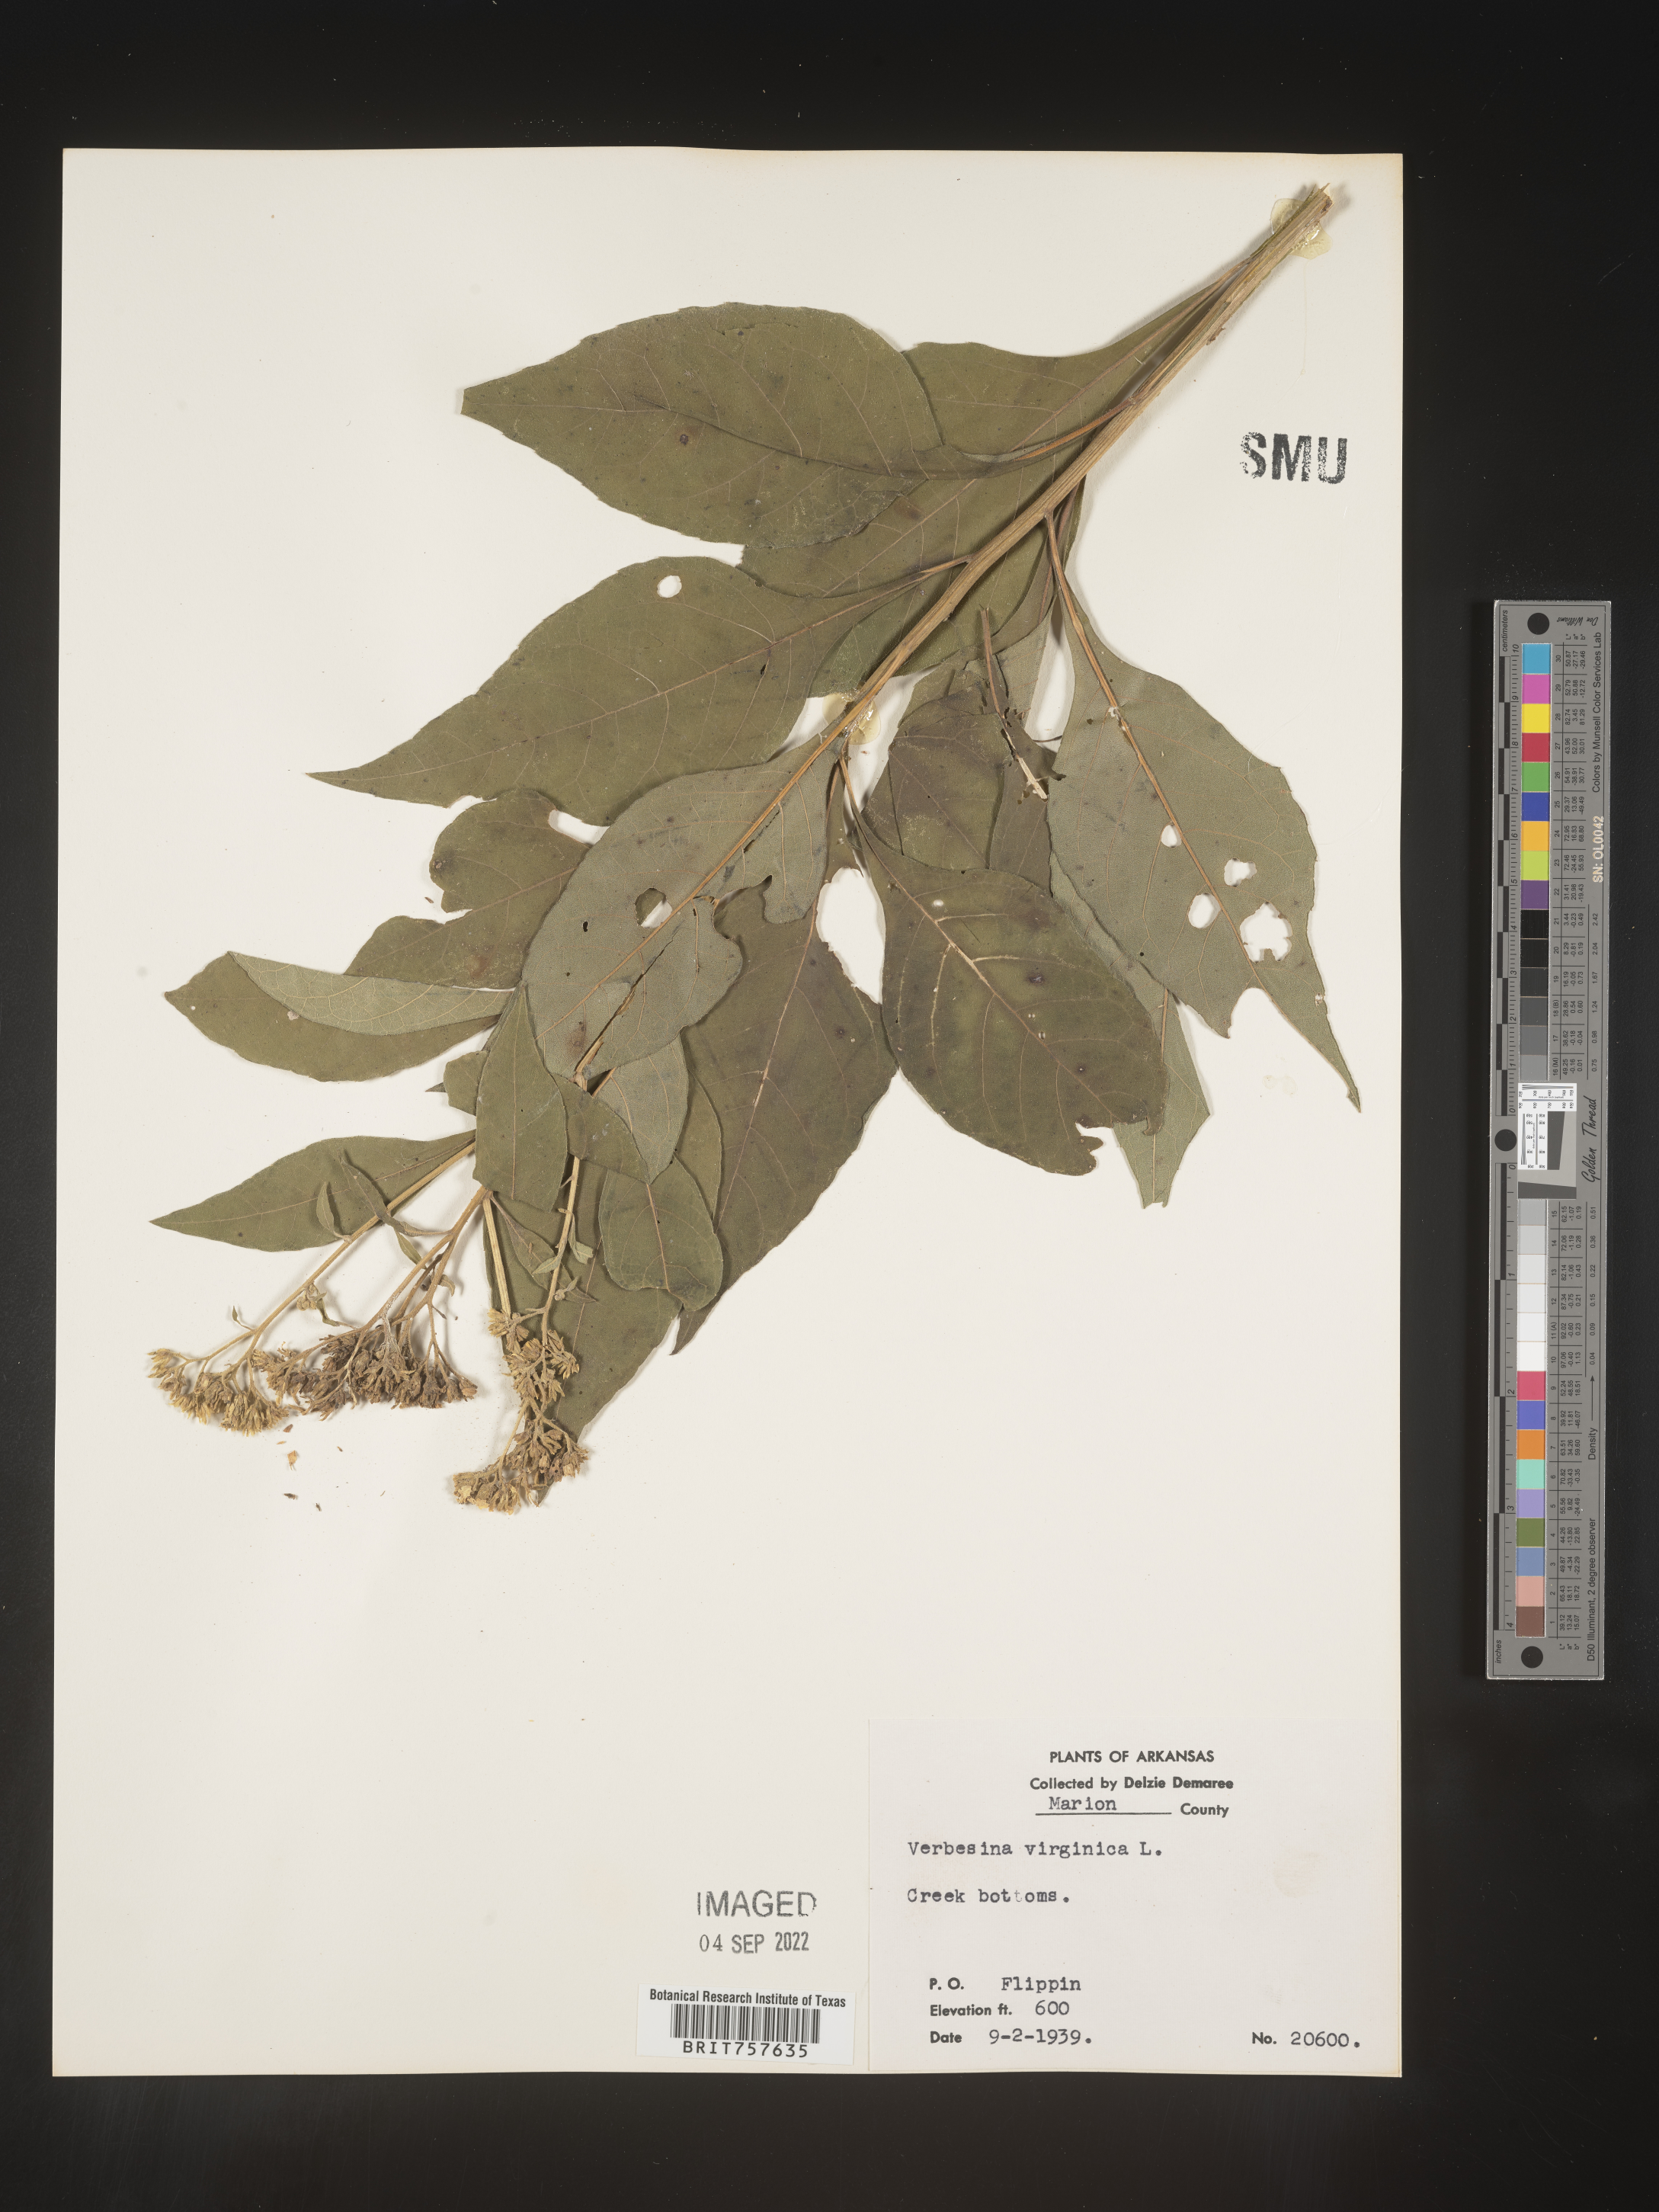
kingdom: Plantae
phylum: Tracheophyta
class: Magnoliopsida
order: Asterales
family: Asteraceae
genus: Verbesina
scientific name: Verbesina virginica
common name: Frostweed
